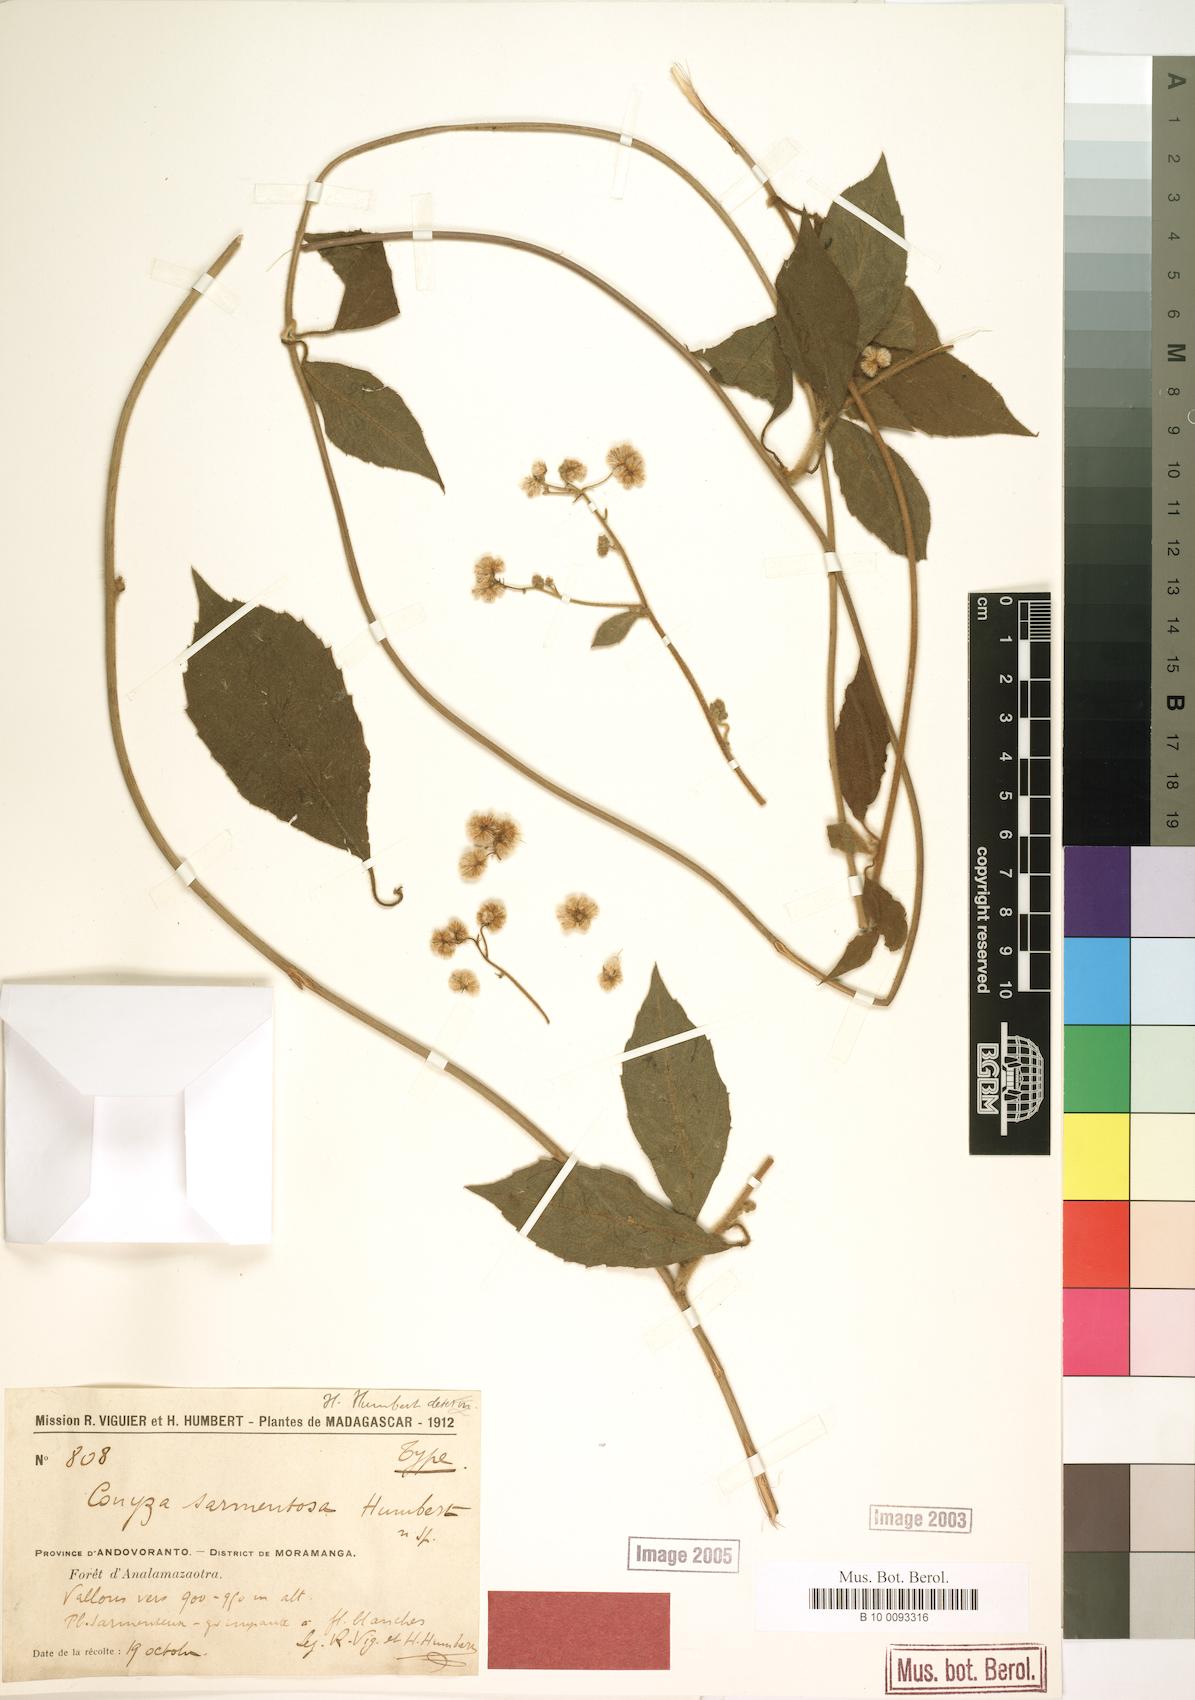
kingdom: Plantae
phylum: Tracheophyta
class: Magnoliopsida
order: Asterales
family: Asteraceae
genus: Conyza
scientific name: Conyza sarmentosa
